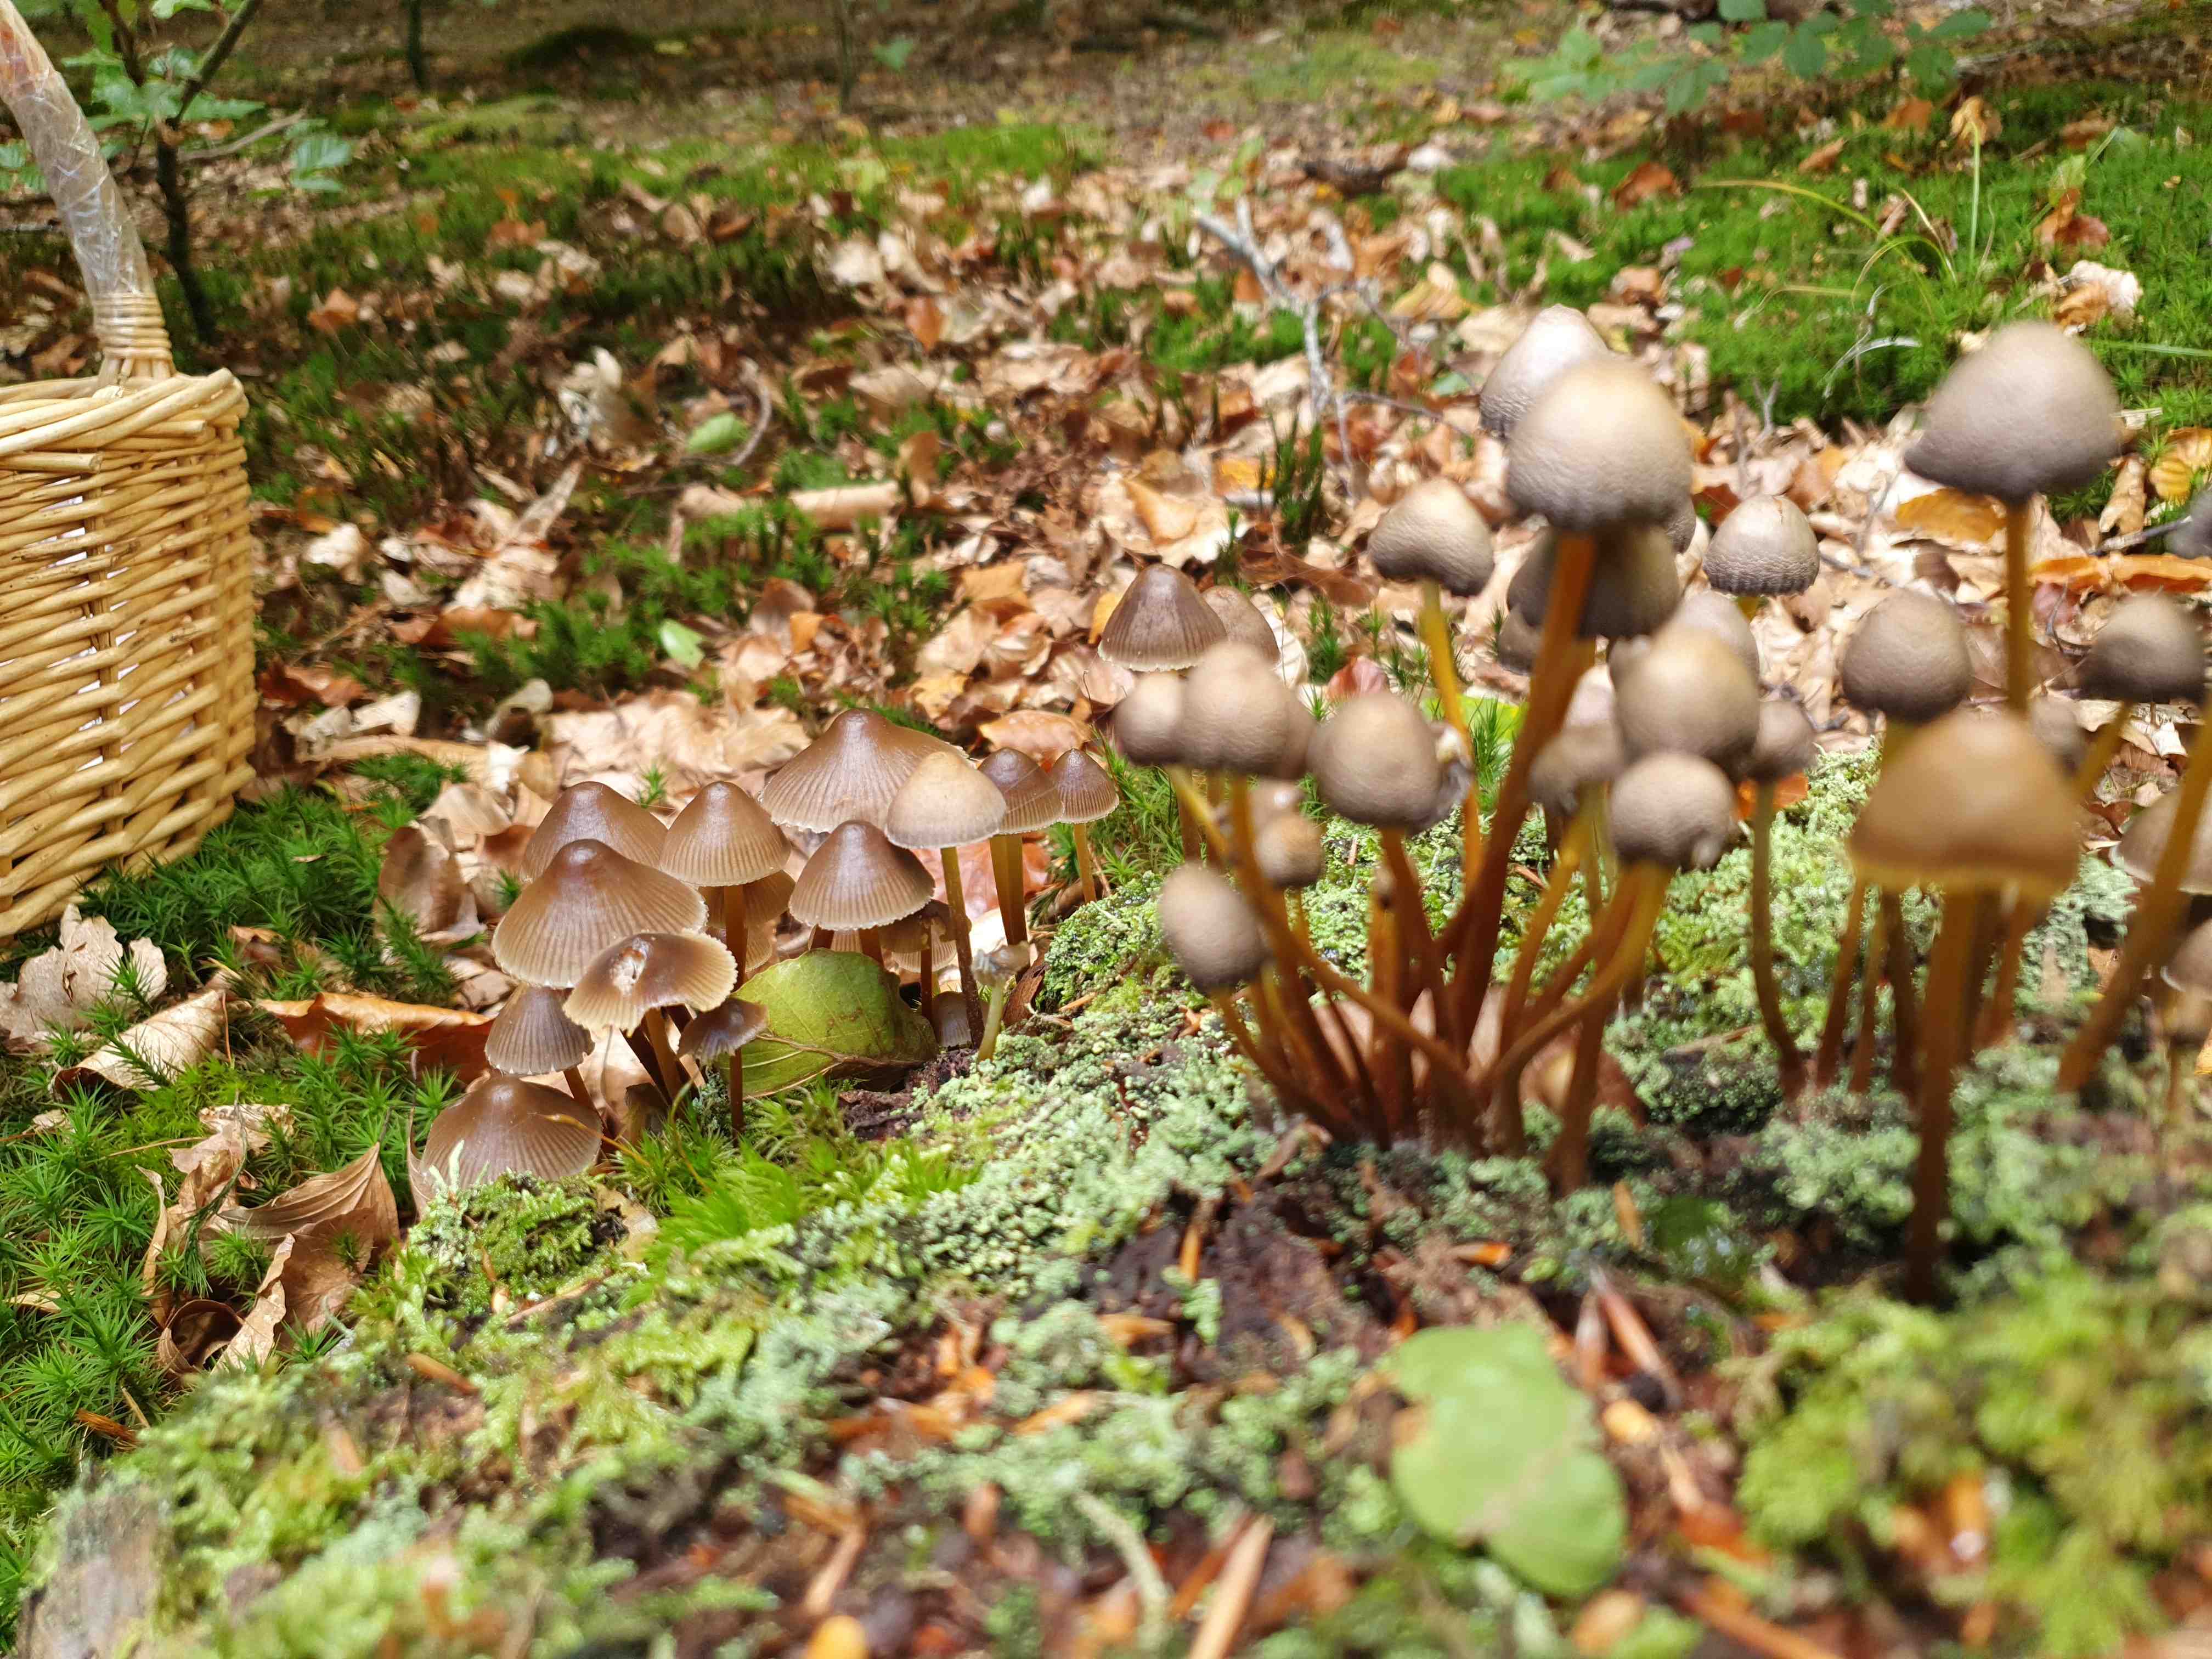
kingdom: Fungi
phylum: Basidiomycota
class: Agaricomycetes
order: Agaricales
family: Mycenaceae
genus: Mycena
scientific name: Mycena inclinata
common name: nikkende huesvamp
